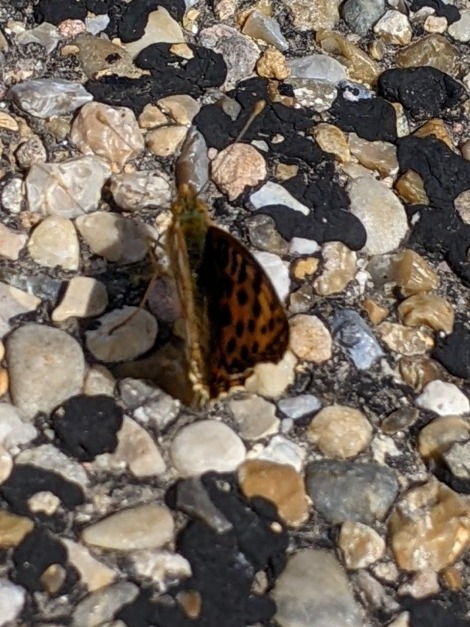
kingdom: Animalia
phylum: Arthropoda
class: Insecta
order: Lepidoptera
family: Nymphalidae
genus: Issoria
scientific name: Issoria lathonia
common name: Storplettet perlemorsommerfugl
